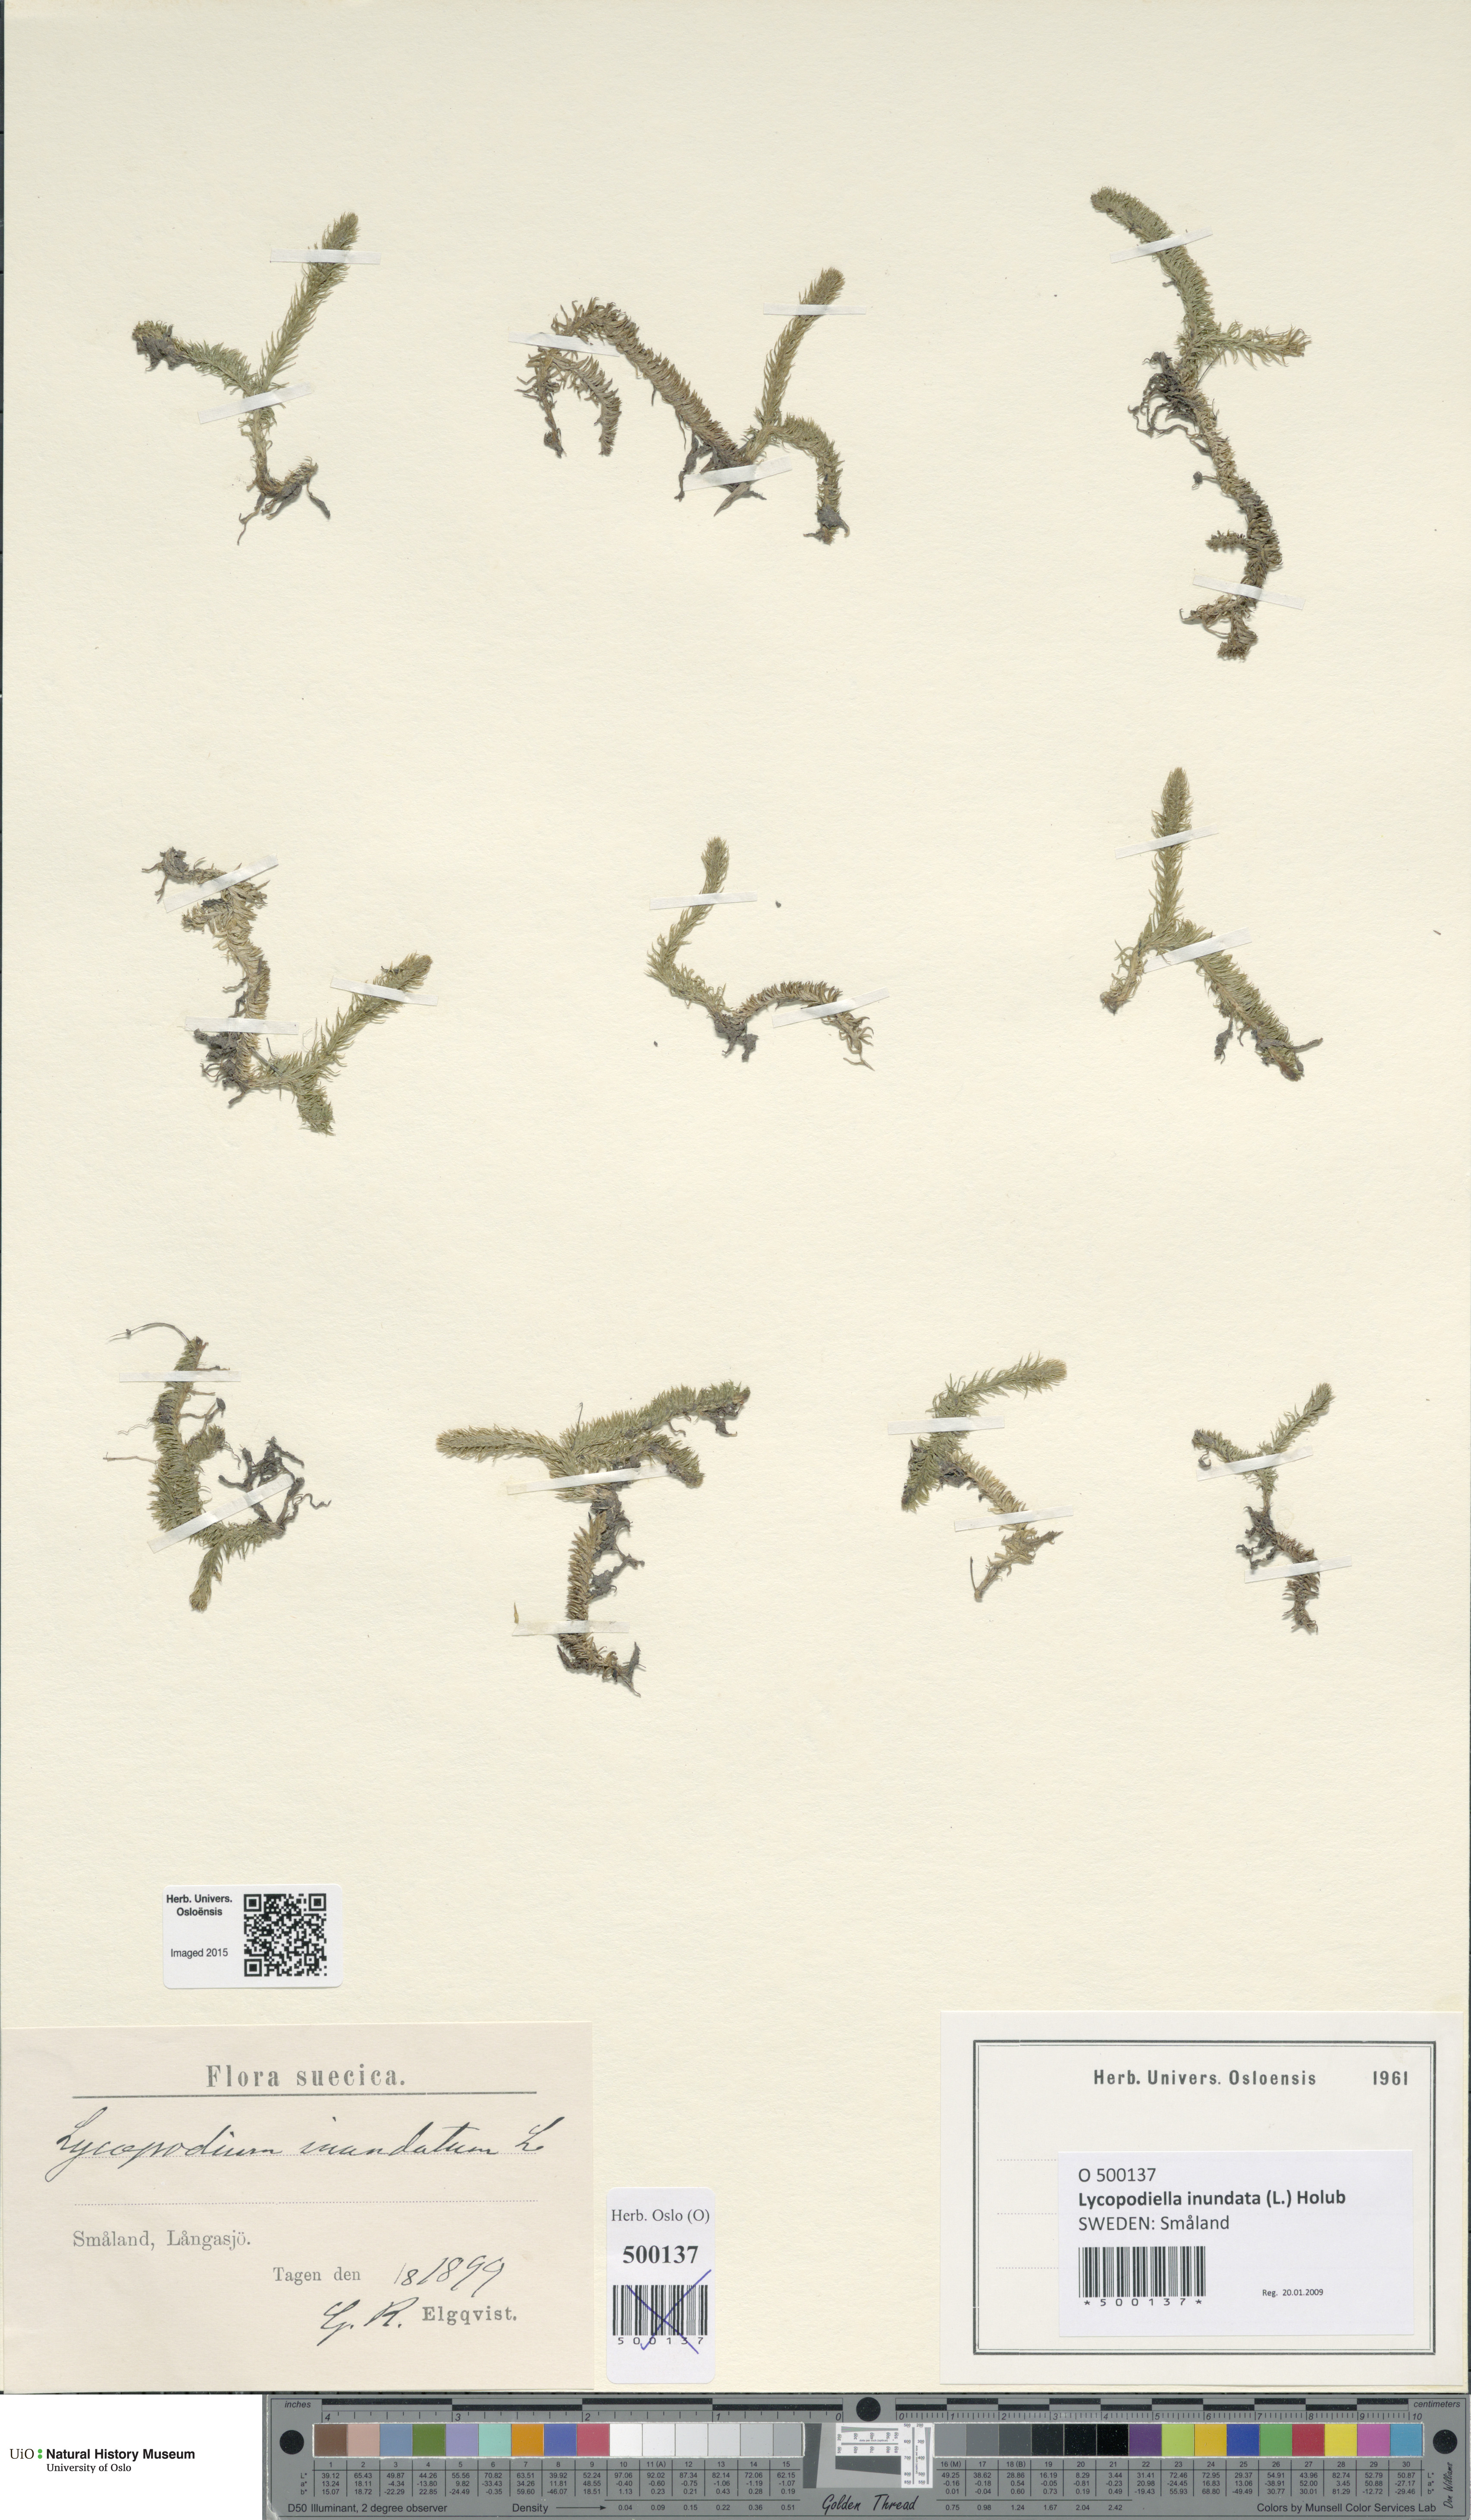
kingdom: Plantae
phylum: Tracheophyta
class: Lycopodiopsida
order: Lycopodiales
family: Lycopodiaceae
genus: Lycopodiella
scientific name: Lycopodiella inundata
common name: Marsh clubmoss
